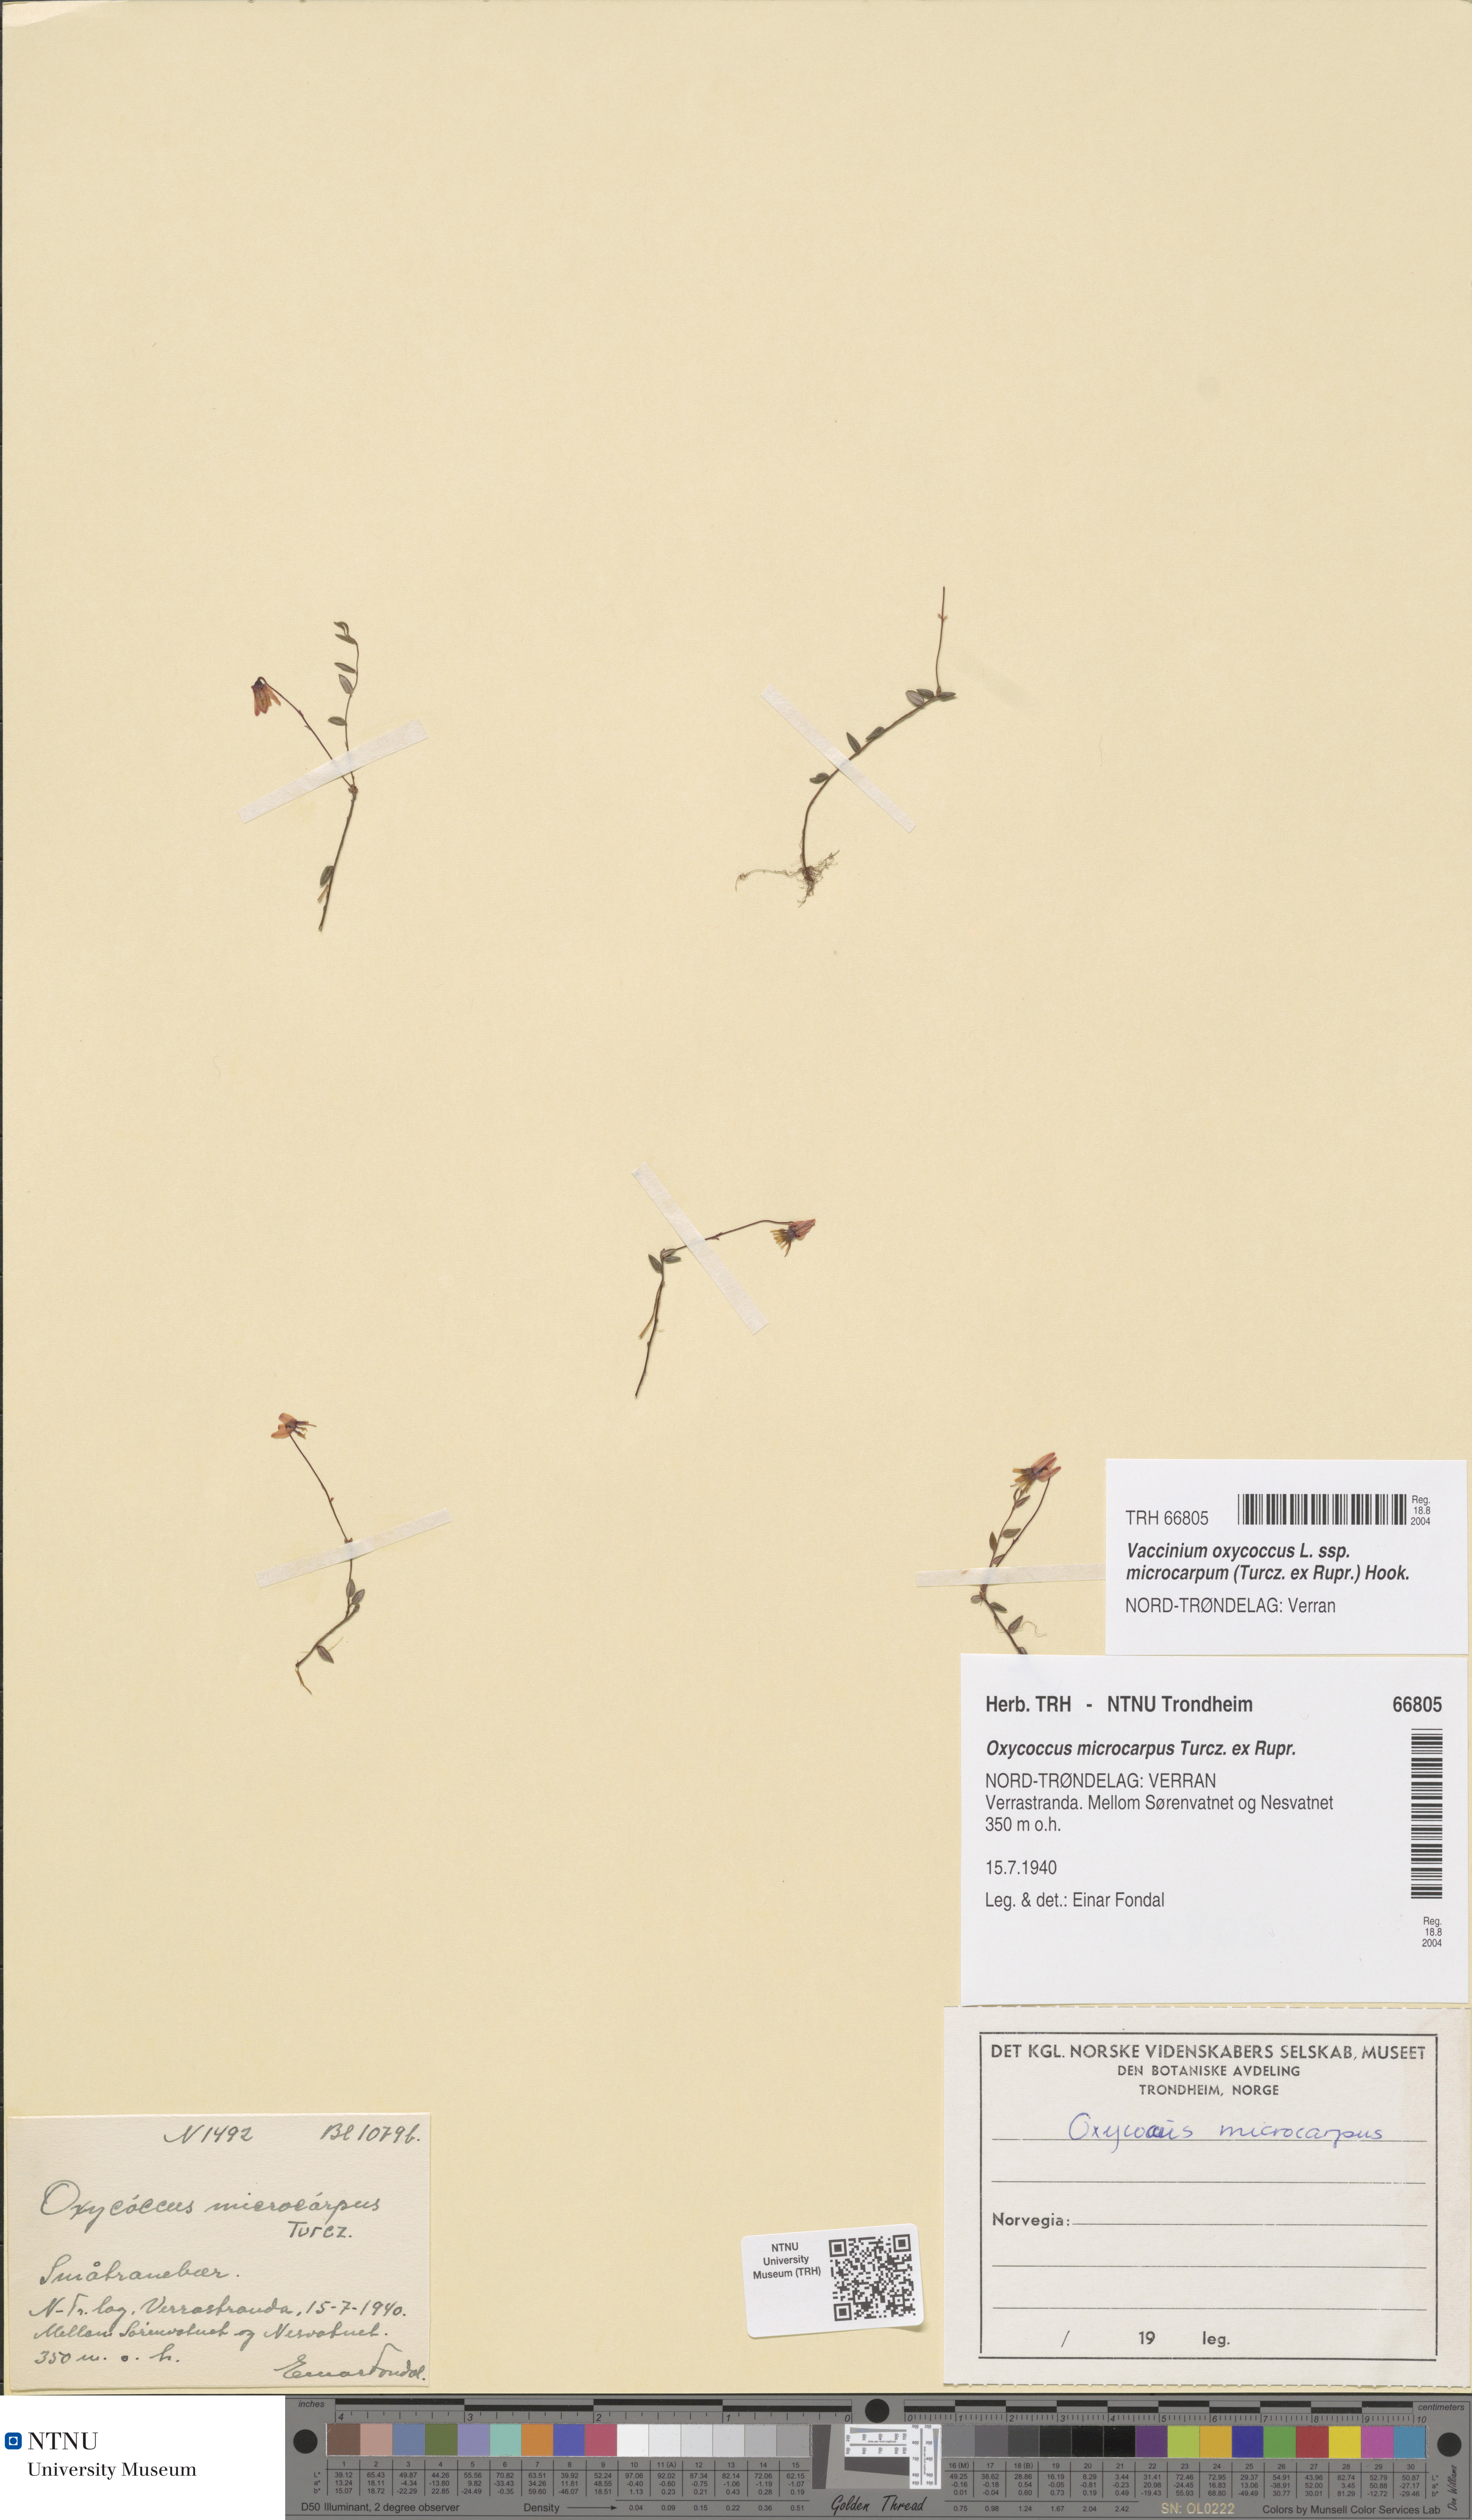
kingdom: Plantae
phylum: Tracheophyta
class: Magnoliopsida
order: Ericales
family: Ericaceae
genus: Vaccinium
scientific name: Vaccinium microcarpum
